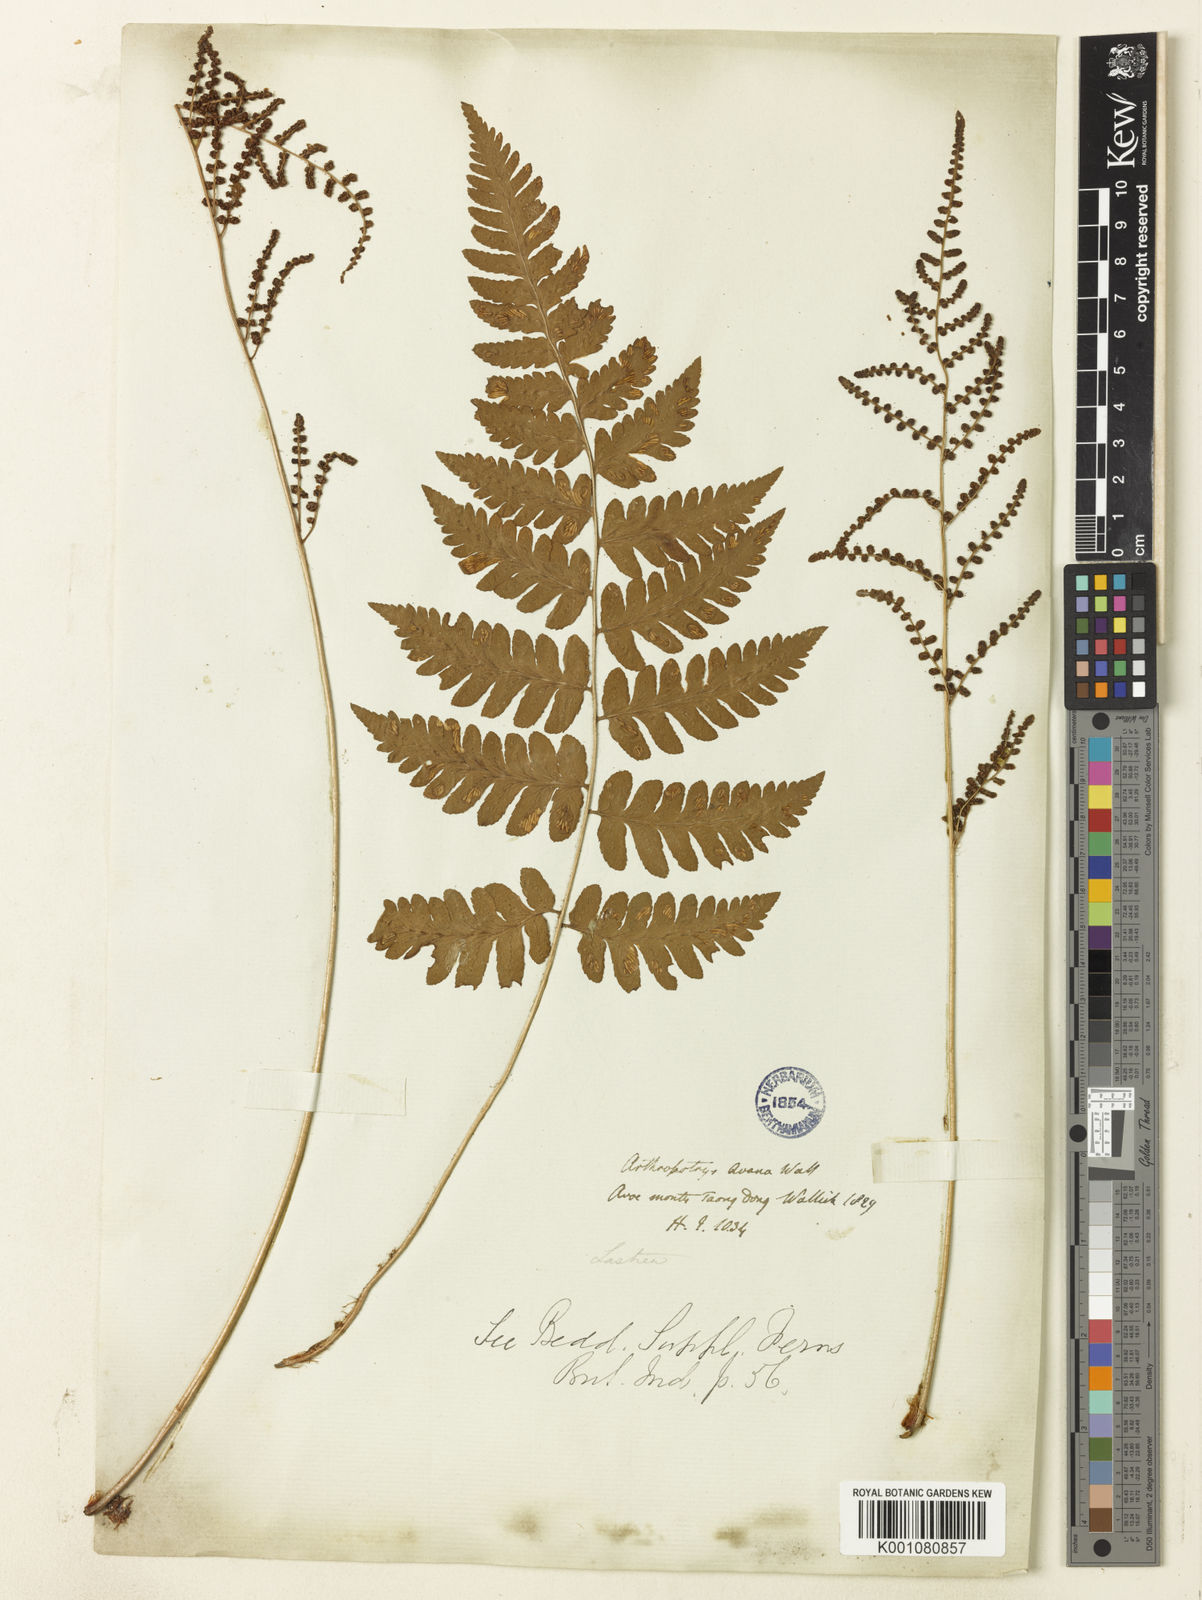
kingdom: Plantae
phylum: Tracheophyta
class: Polypodiopsida
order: Polypodiales
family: Dryopteridaceae
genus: Dryopteris
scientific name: Dryopteris cochleata
